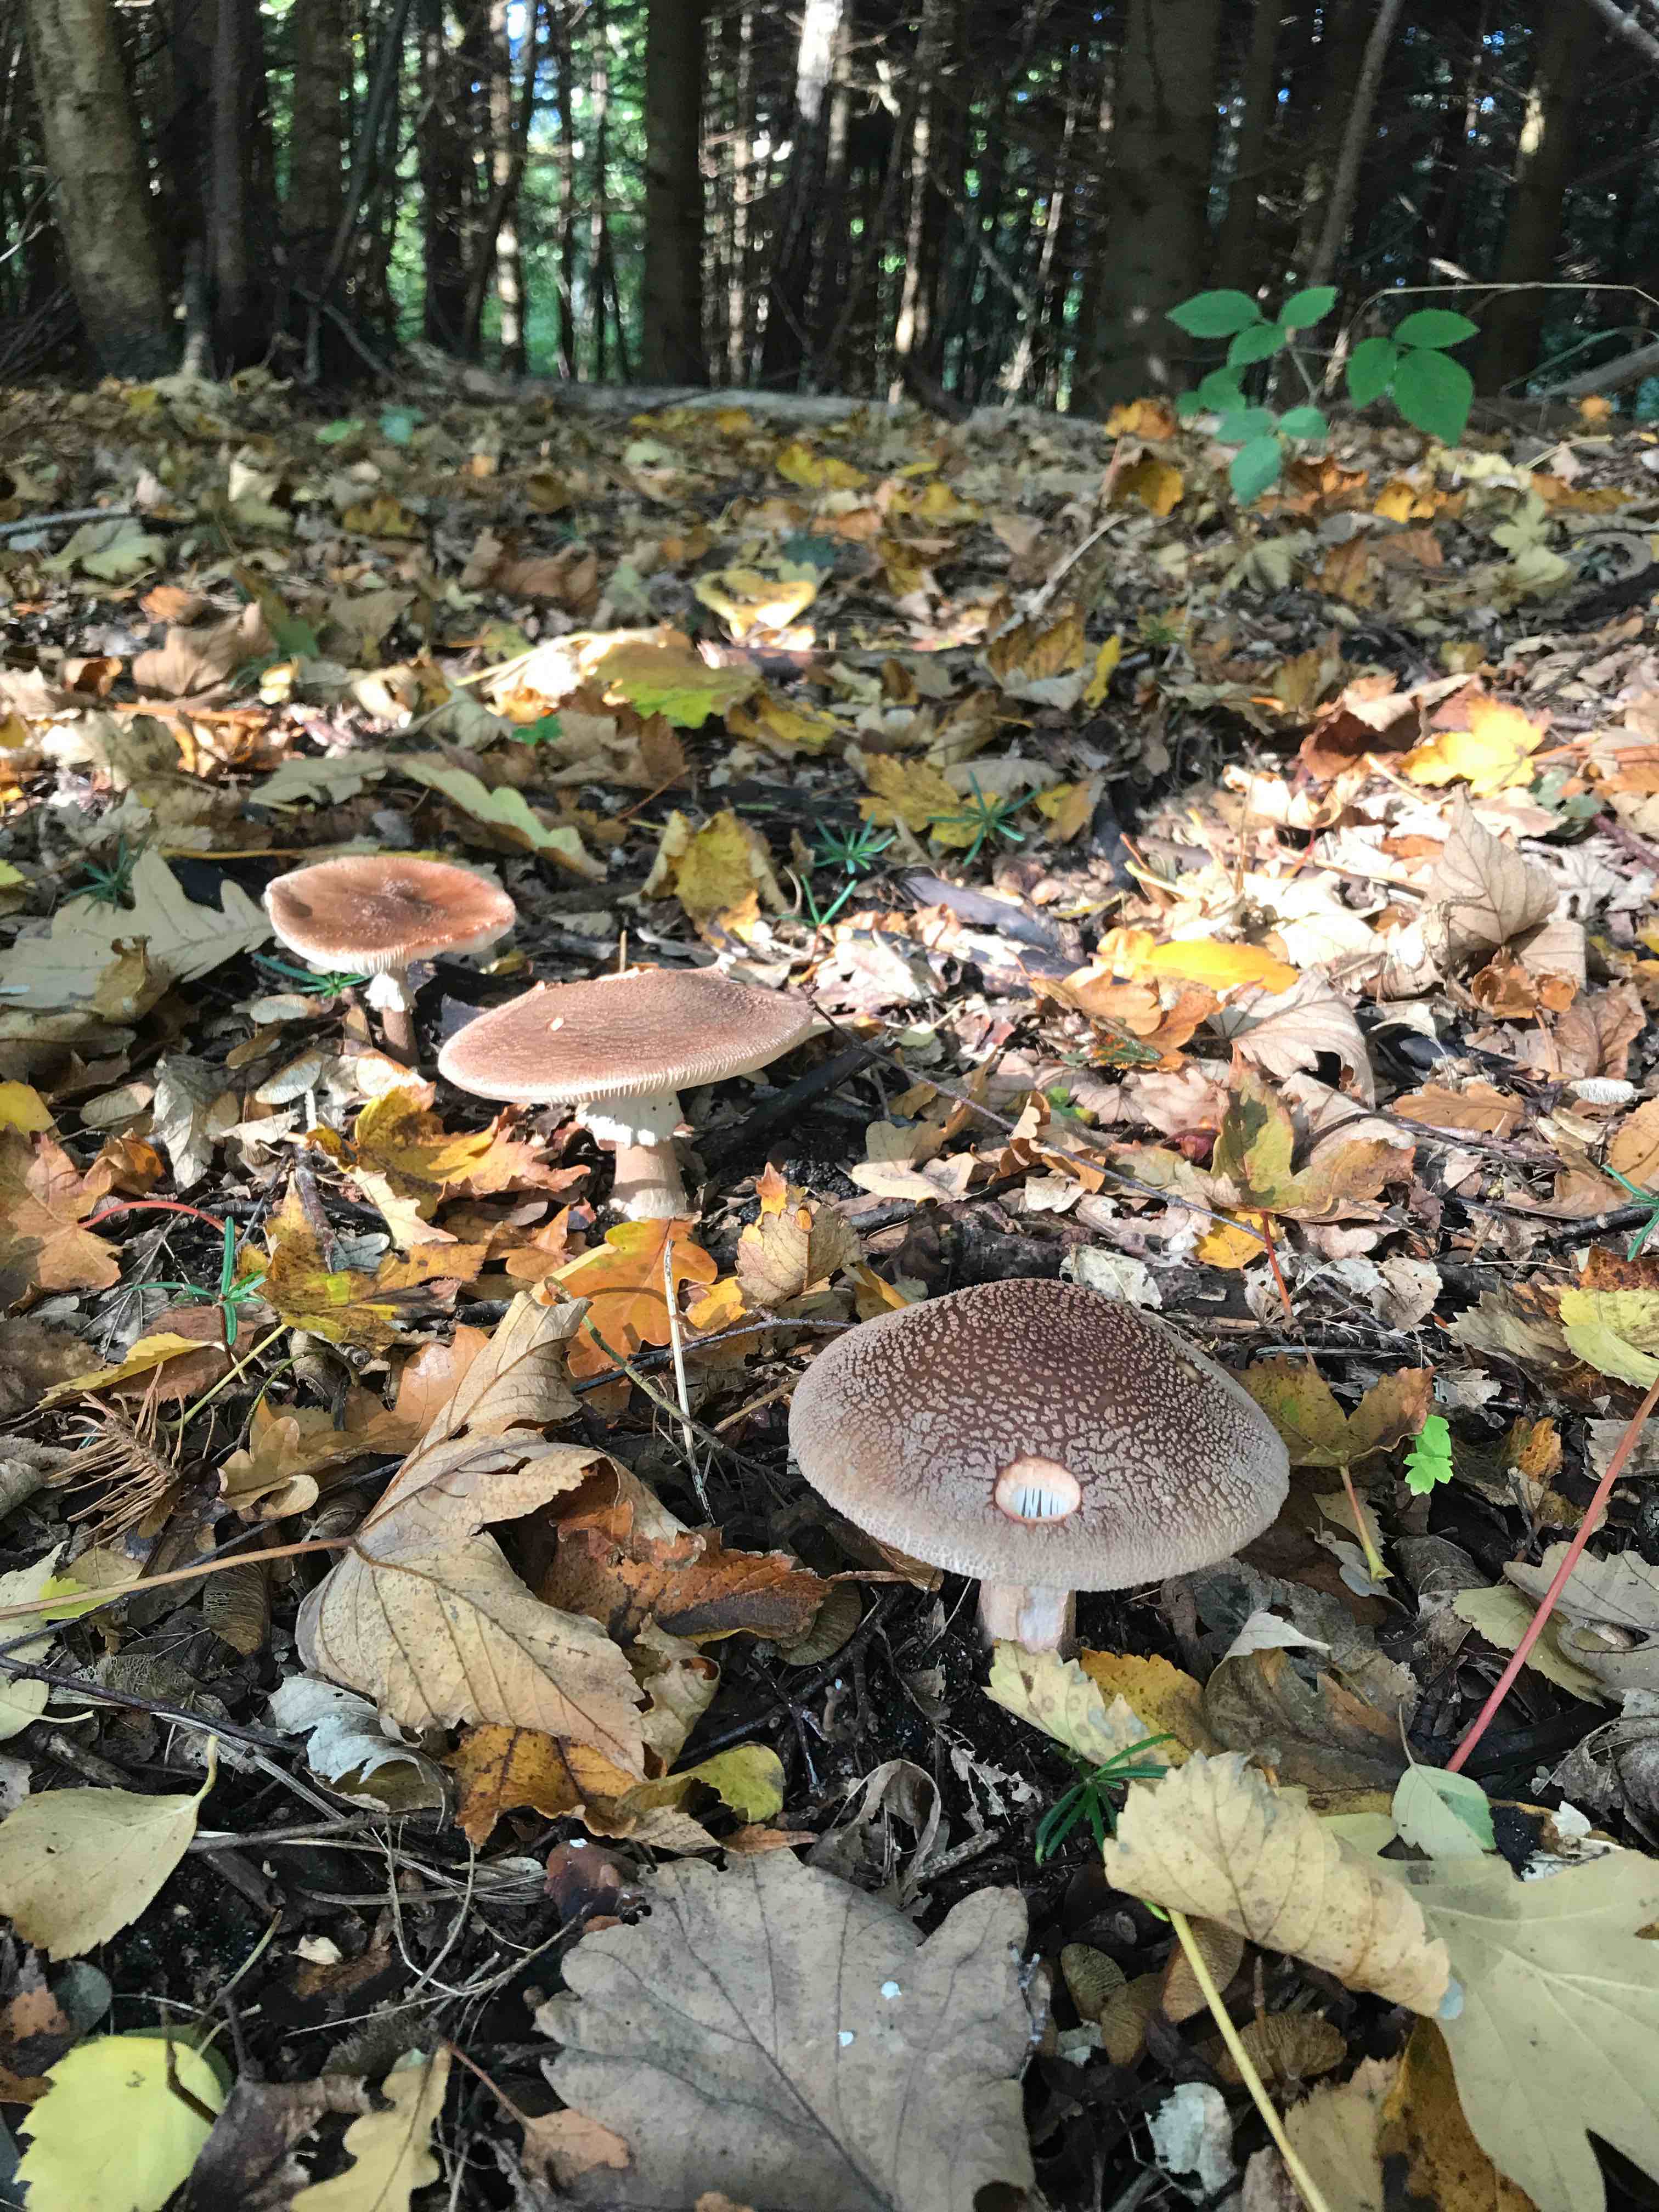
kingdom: Fungi
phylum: Basidiomycota
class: Agaricomycetes
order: Agaricales
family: Amanitaceae
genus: Amanita
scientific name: Amanita rubescens
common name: rødmende fluesvamp
